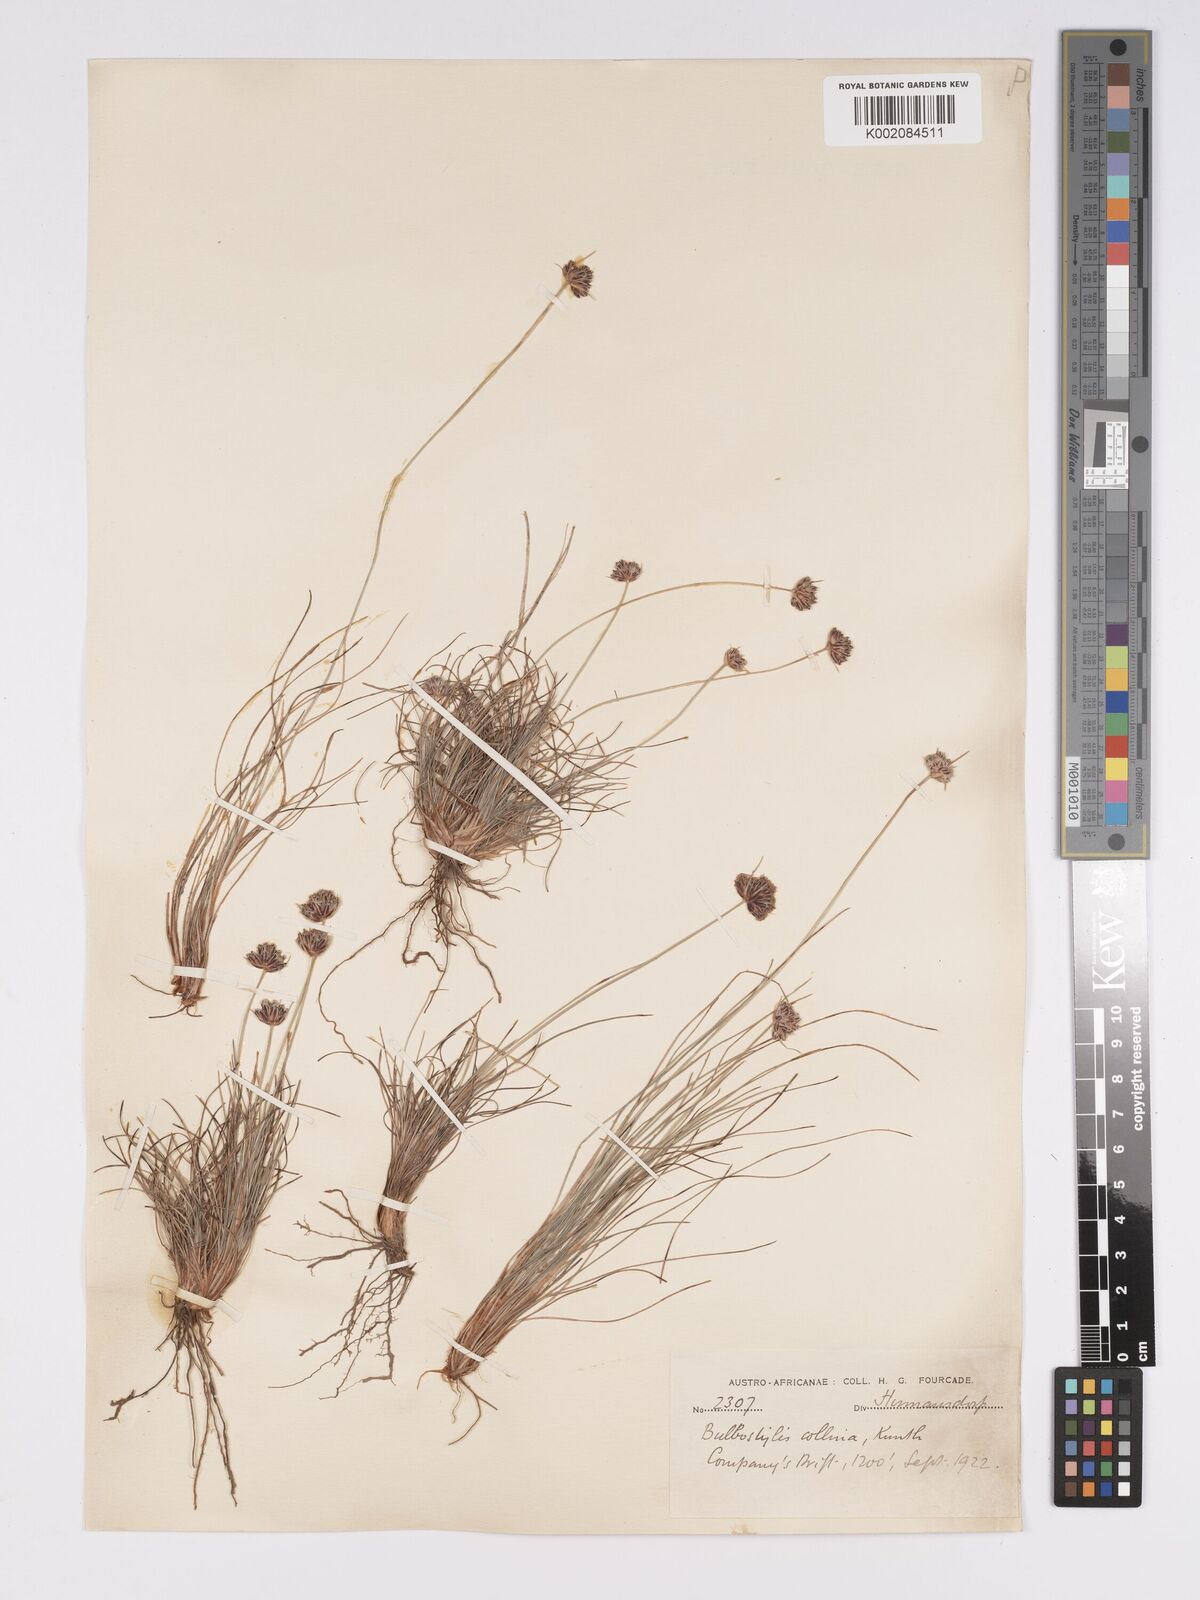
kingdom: Plantae
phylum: Tracheophyta
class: Liliopsida
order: Poales
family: Cyperaceae
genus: Bulbostylis
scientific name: Bulbostylis contexta
